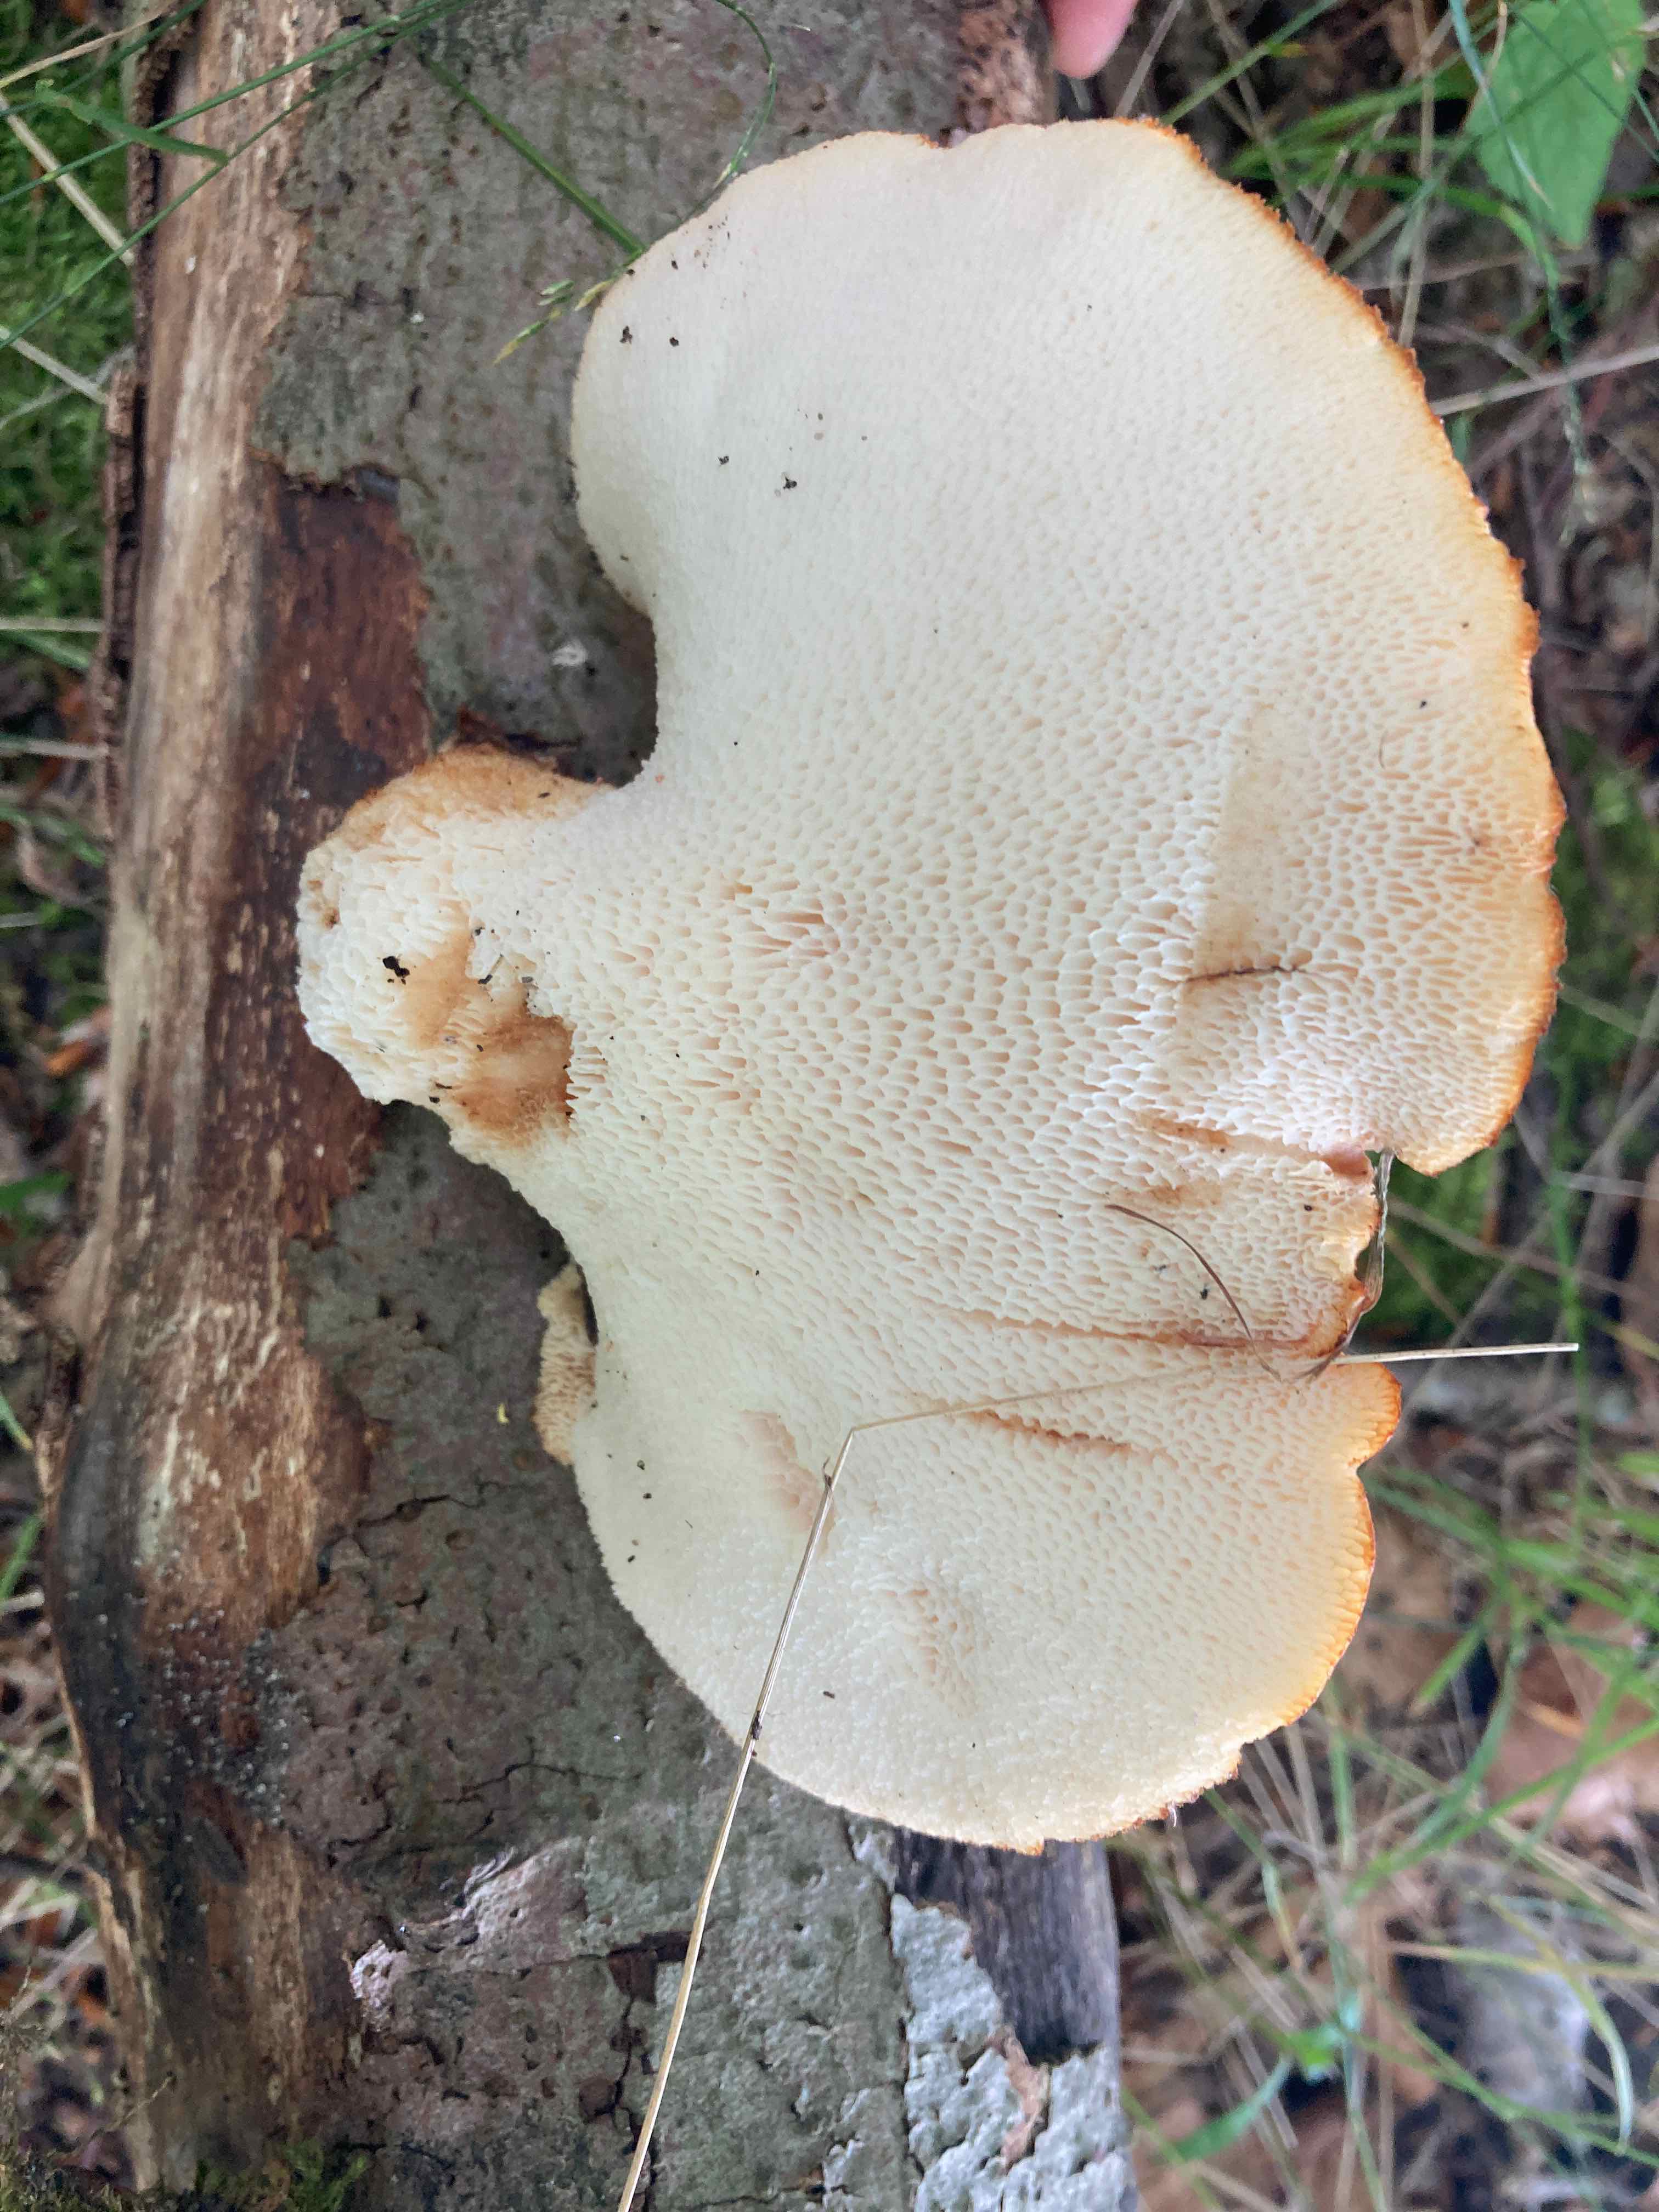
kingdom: Fungi
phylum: Basidiomycota
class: Agaricomycetes
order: Polyporales
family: Polyporaceae
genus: Polyporus
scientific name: Polyporus tuberaster
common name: knoldet stilkporesvamp
